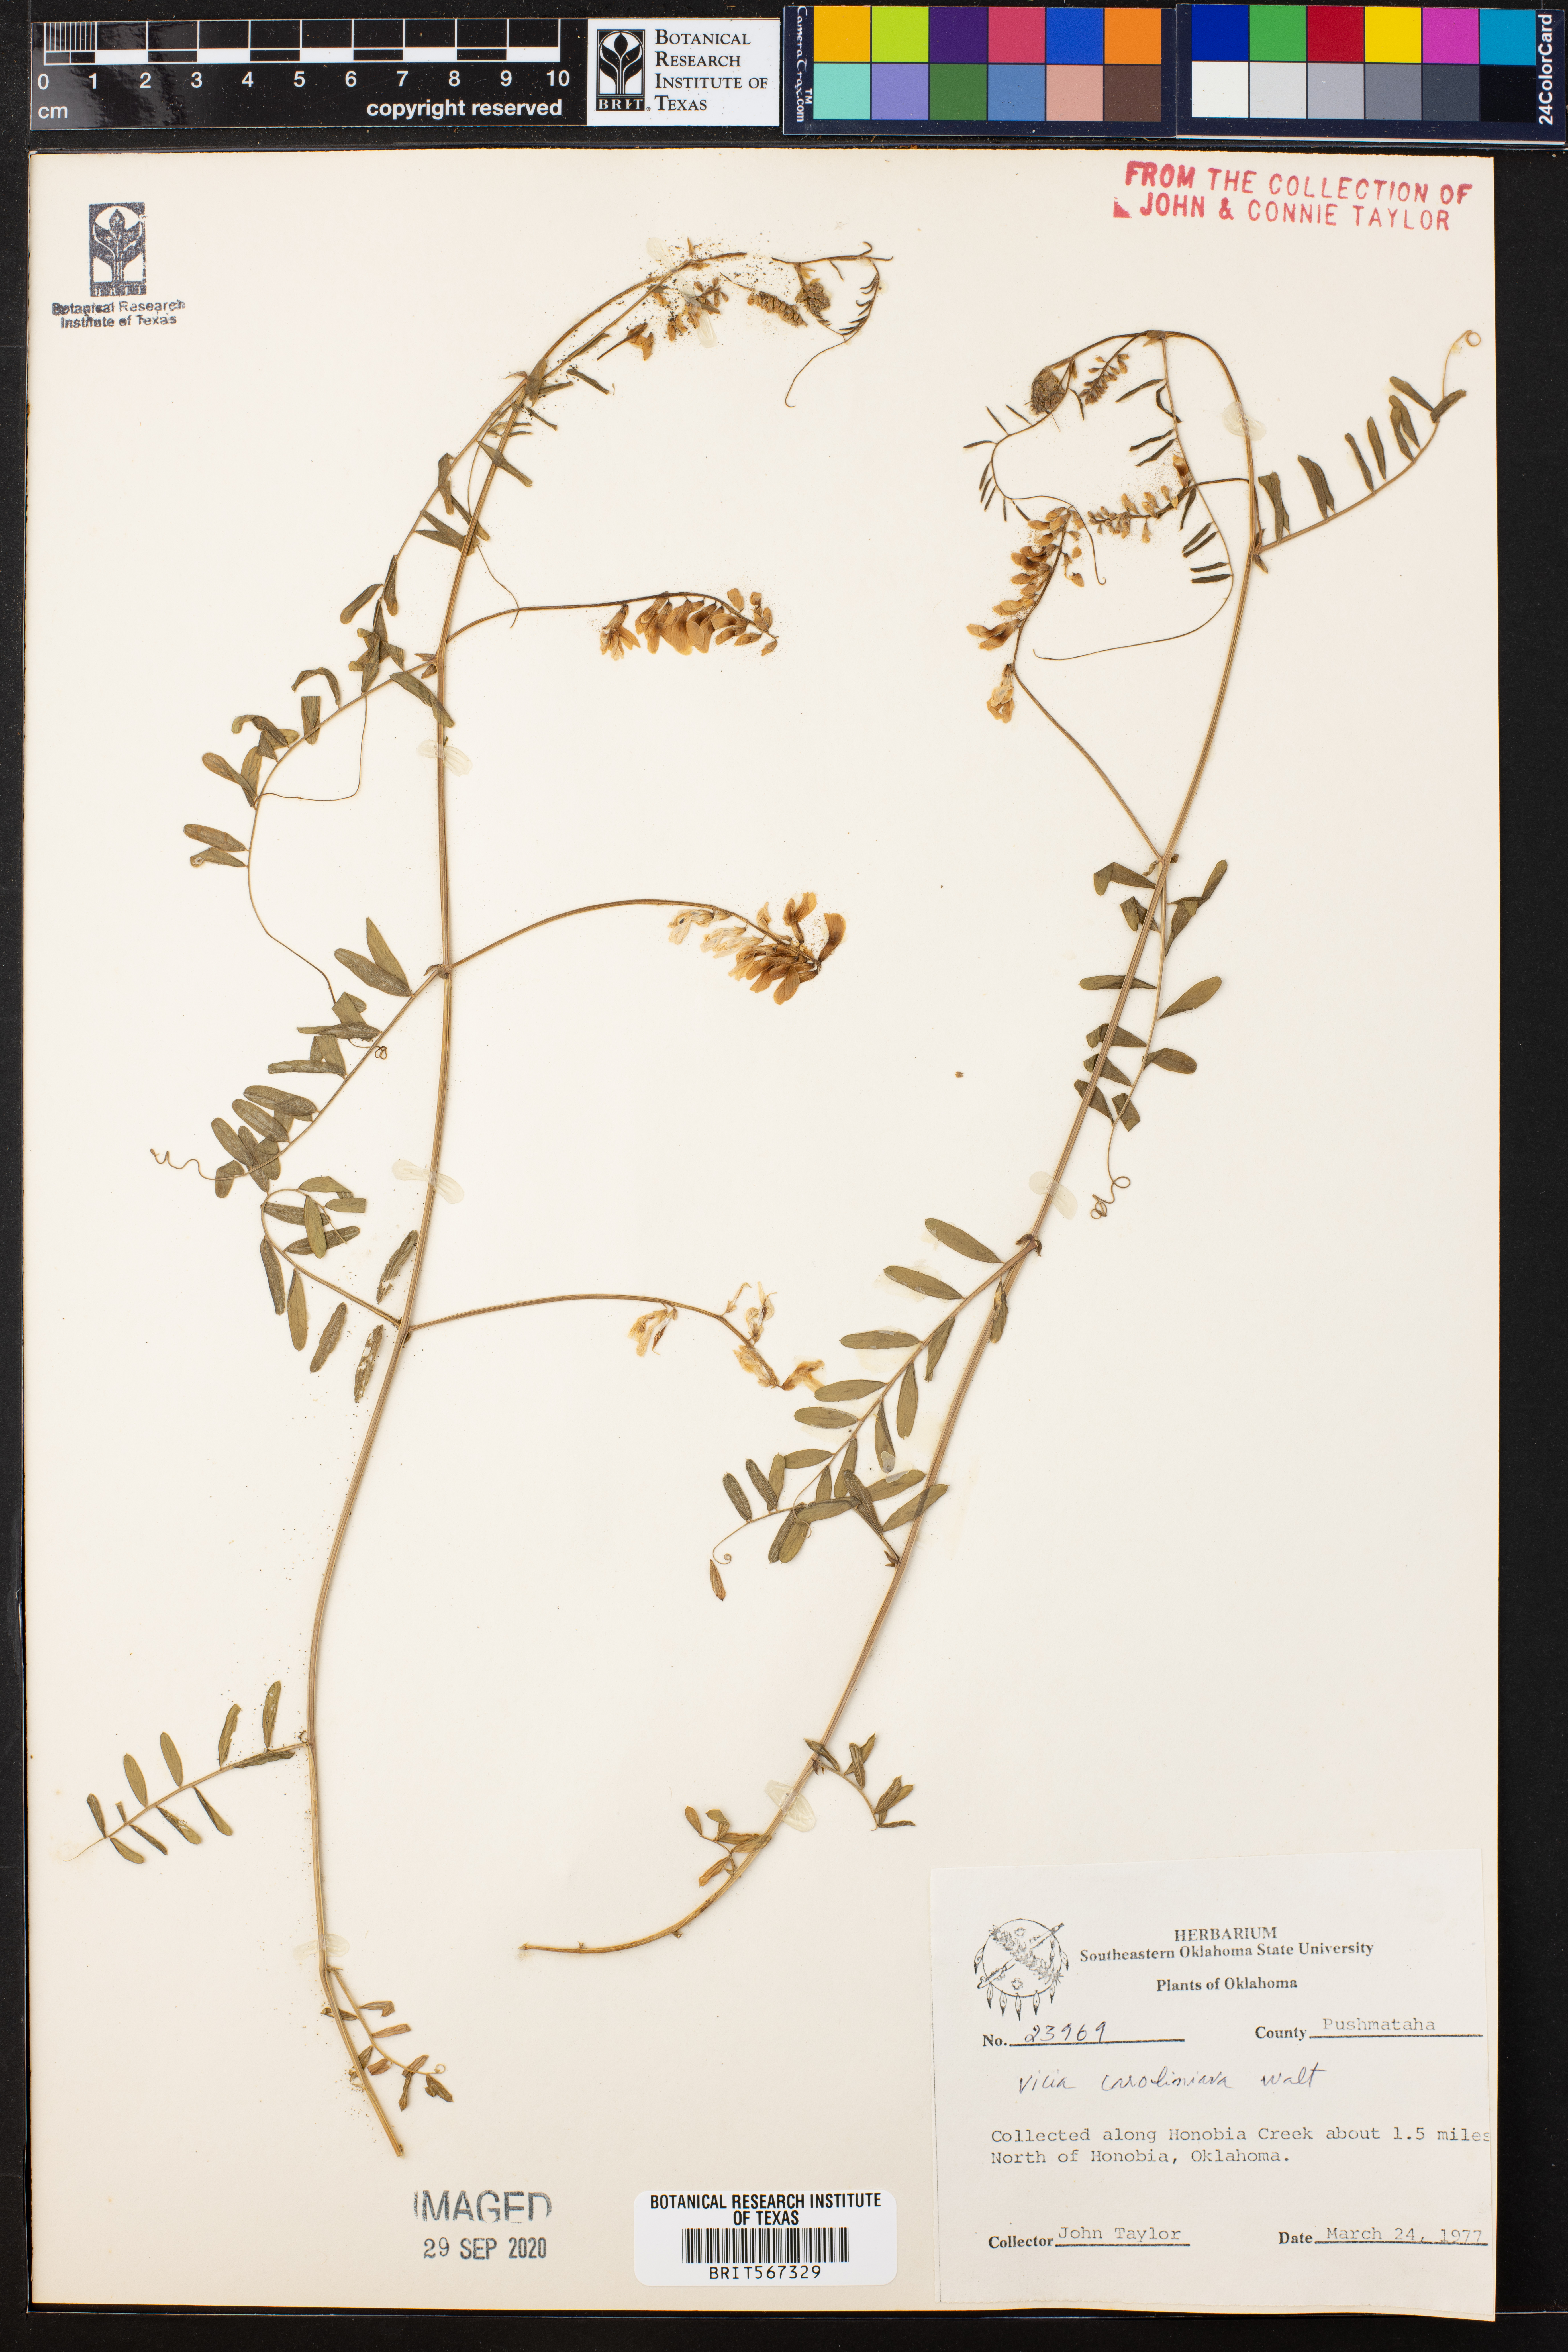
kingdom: Plantae
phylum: Tracheophyta
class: Magnoliopsida
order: Fabales
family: Fabaceae
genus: Vicia
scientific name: Vicia caroliniana
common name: Carolina vetch
